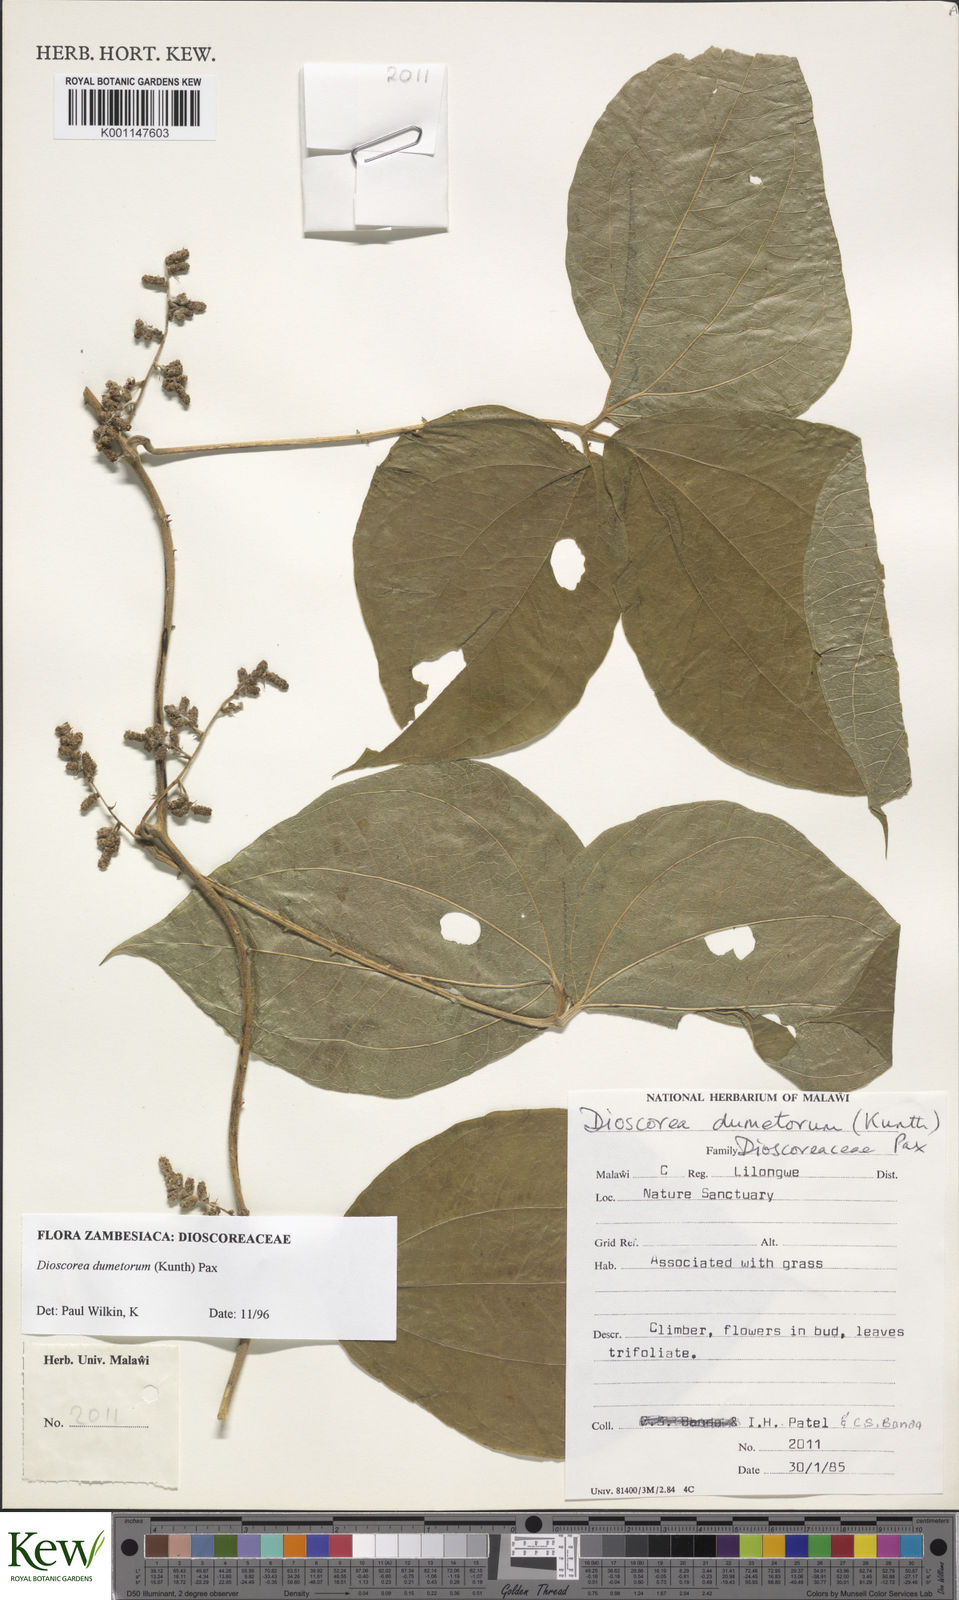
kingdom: Plantae
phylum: Tracheophyta
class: Liliopsida
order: Dioscoreales
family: Dioscoreaceae
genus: Dioscorea
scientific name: Dioscorea dumetorum
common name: African bitter yam
